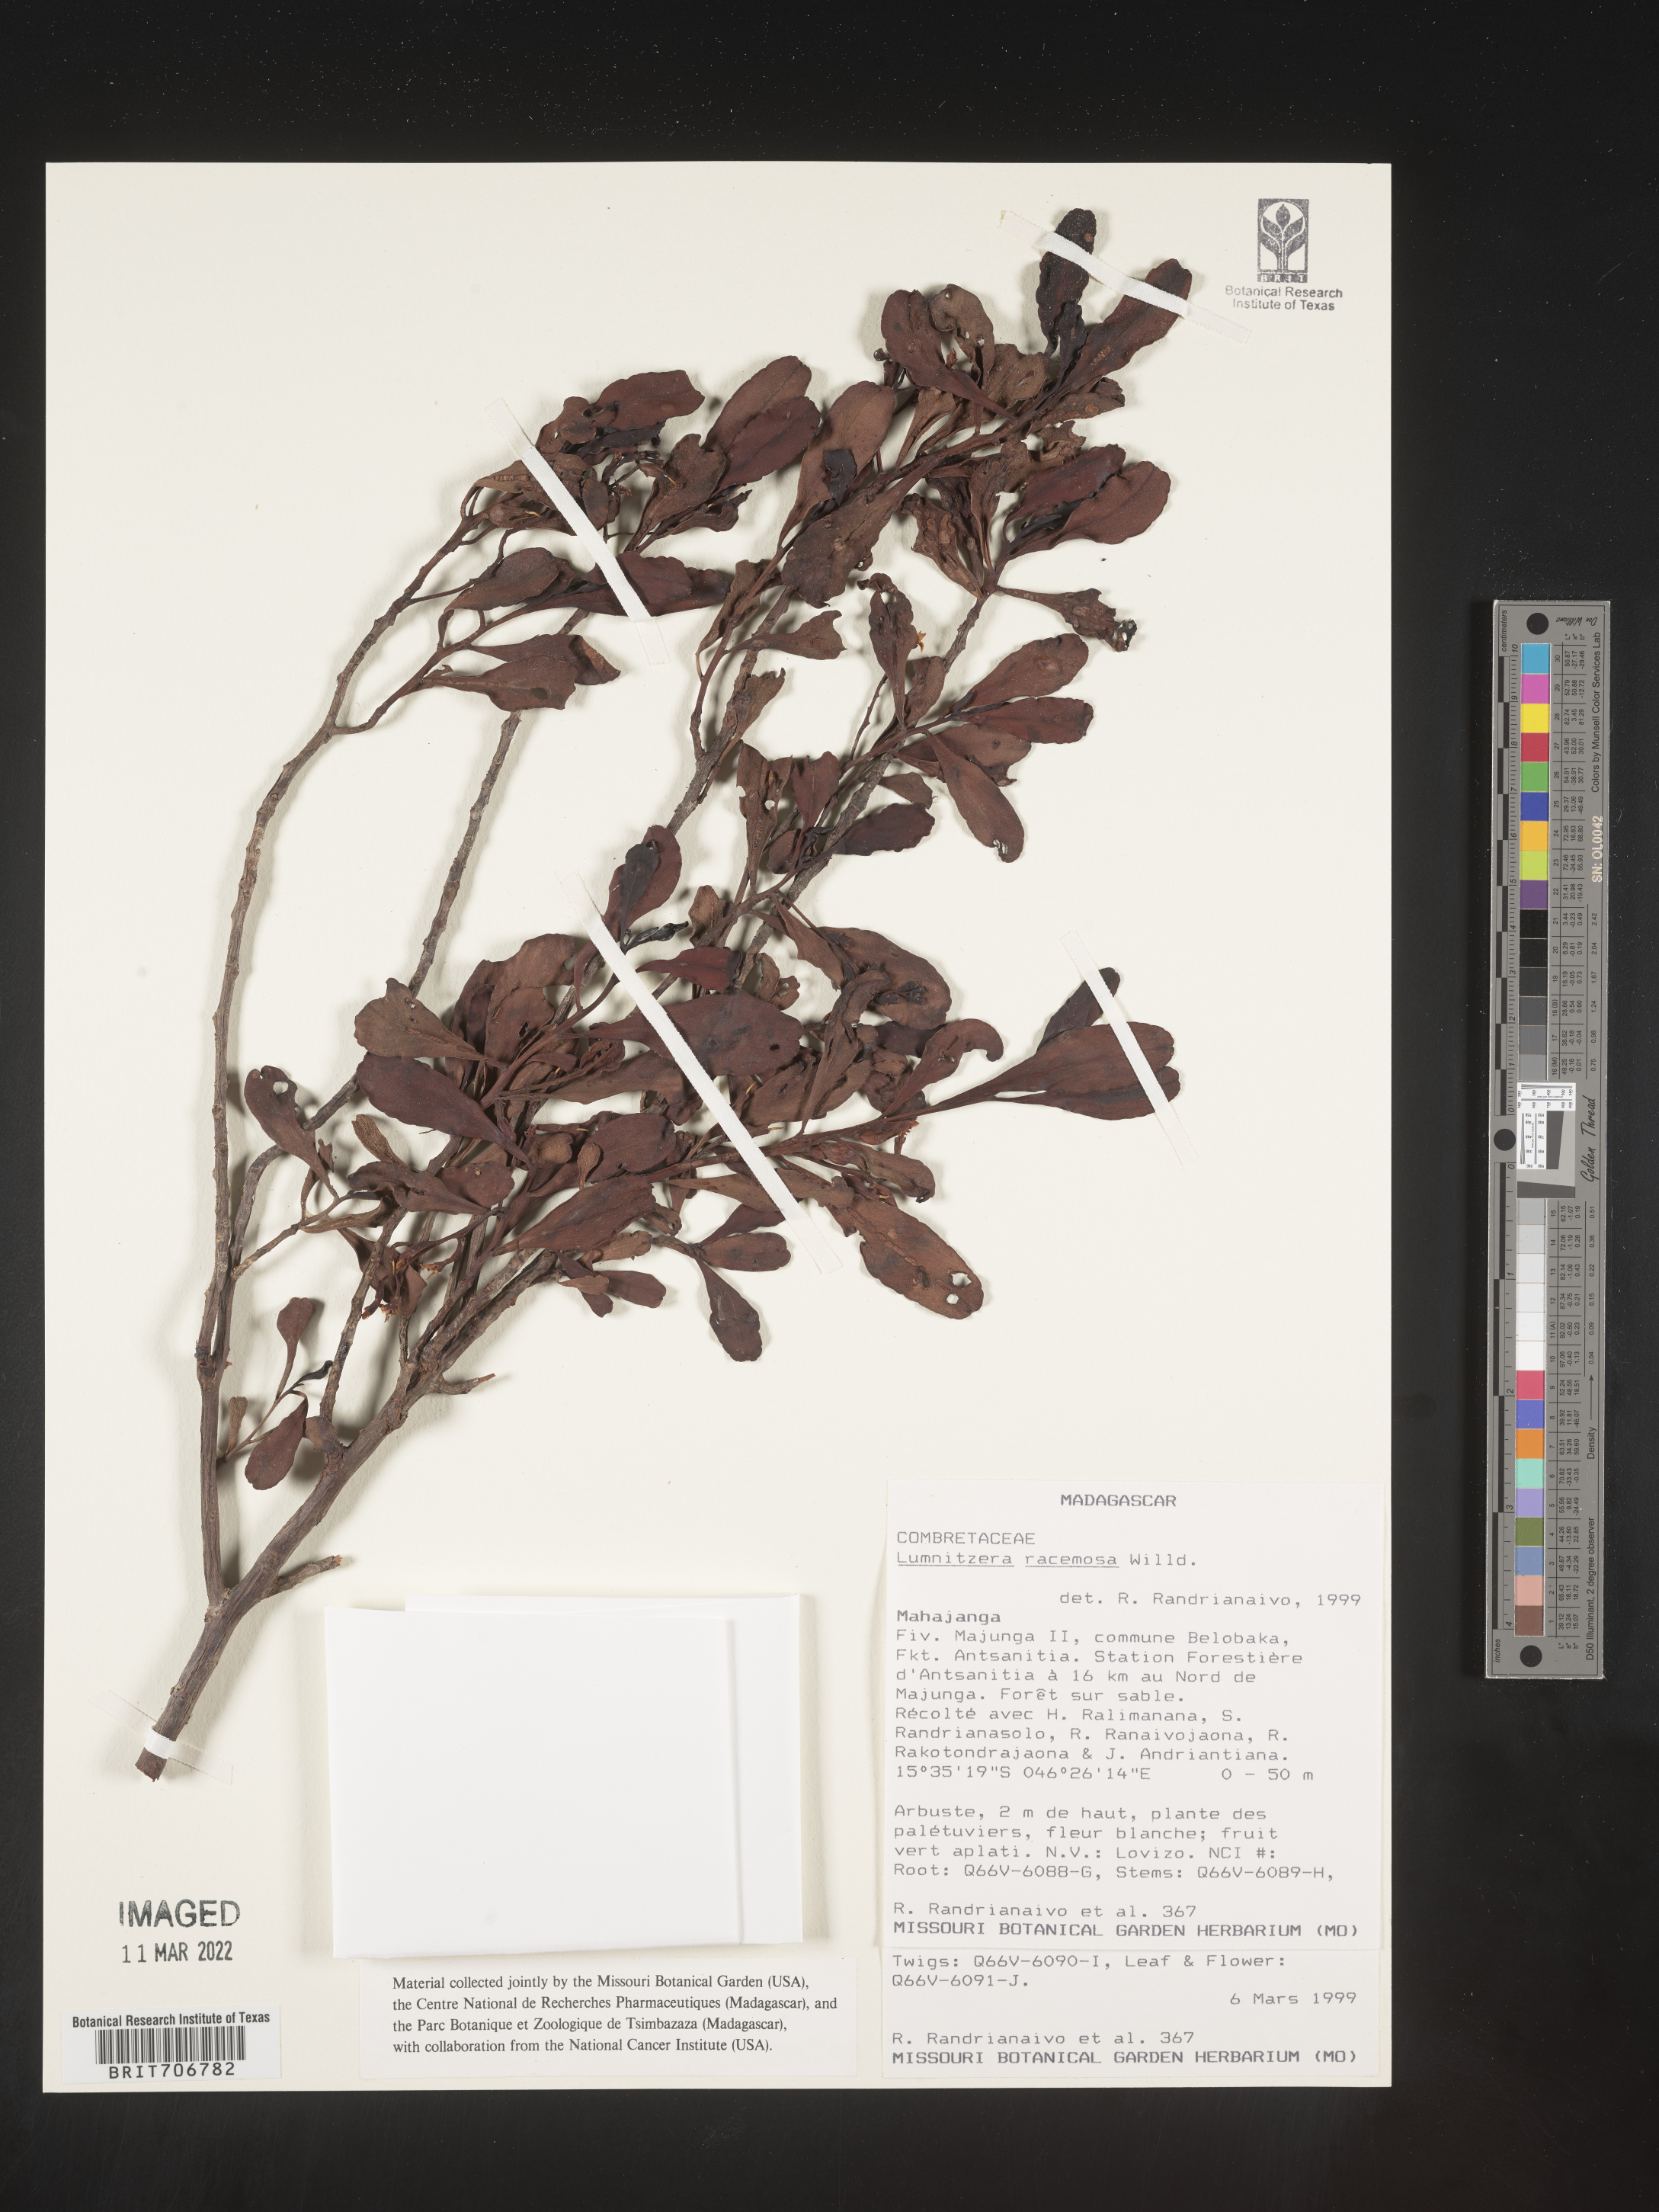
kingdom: Plantae
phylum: Tracheophyta
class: Magnoliopsida
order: Myrtales
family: Combretaceae
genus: Lumnitzera
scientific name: Lumnitzera
